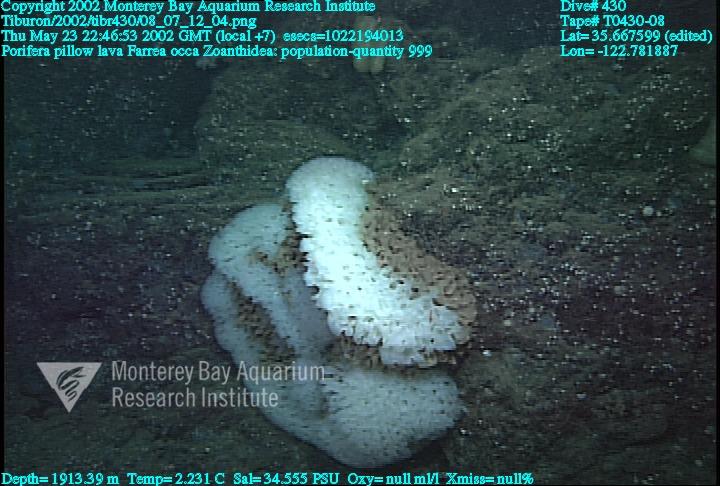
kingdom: Animalia
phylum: Porifera
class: Hexactinellida
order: Sceptrulophora
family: Farreidae
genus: Farrea
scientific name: Farrea occa
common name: Reversed glass sponge
